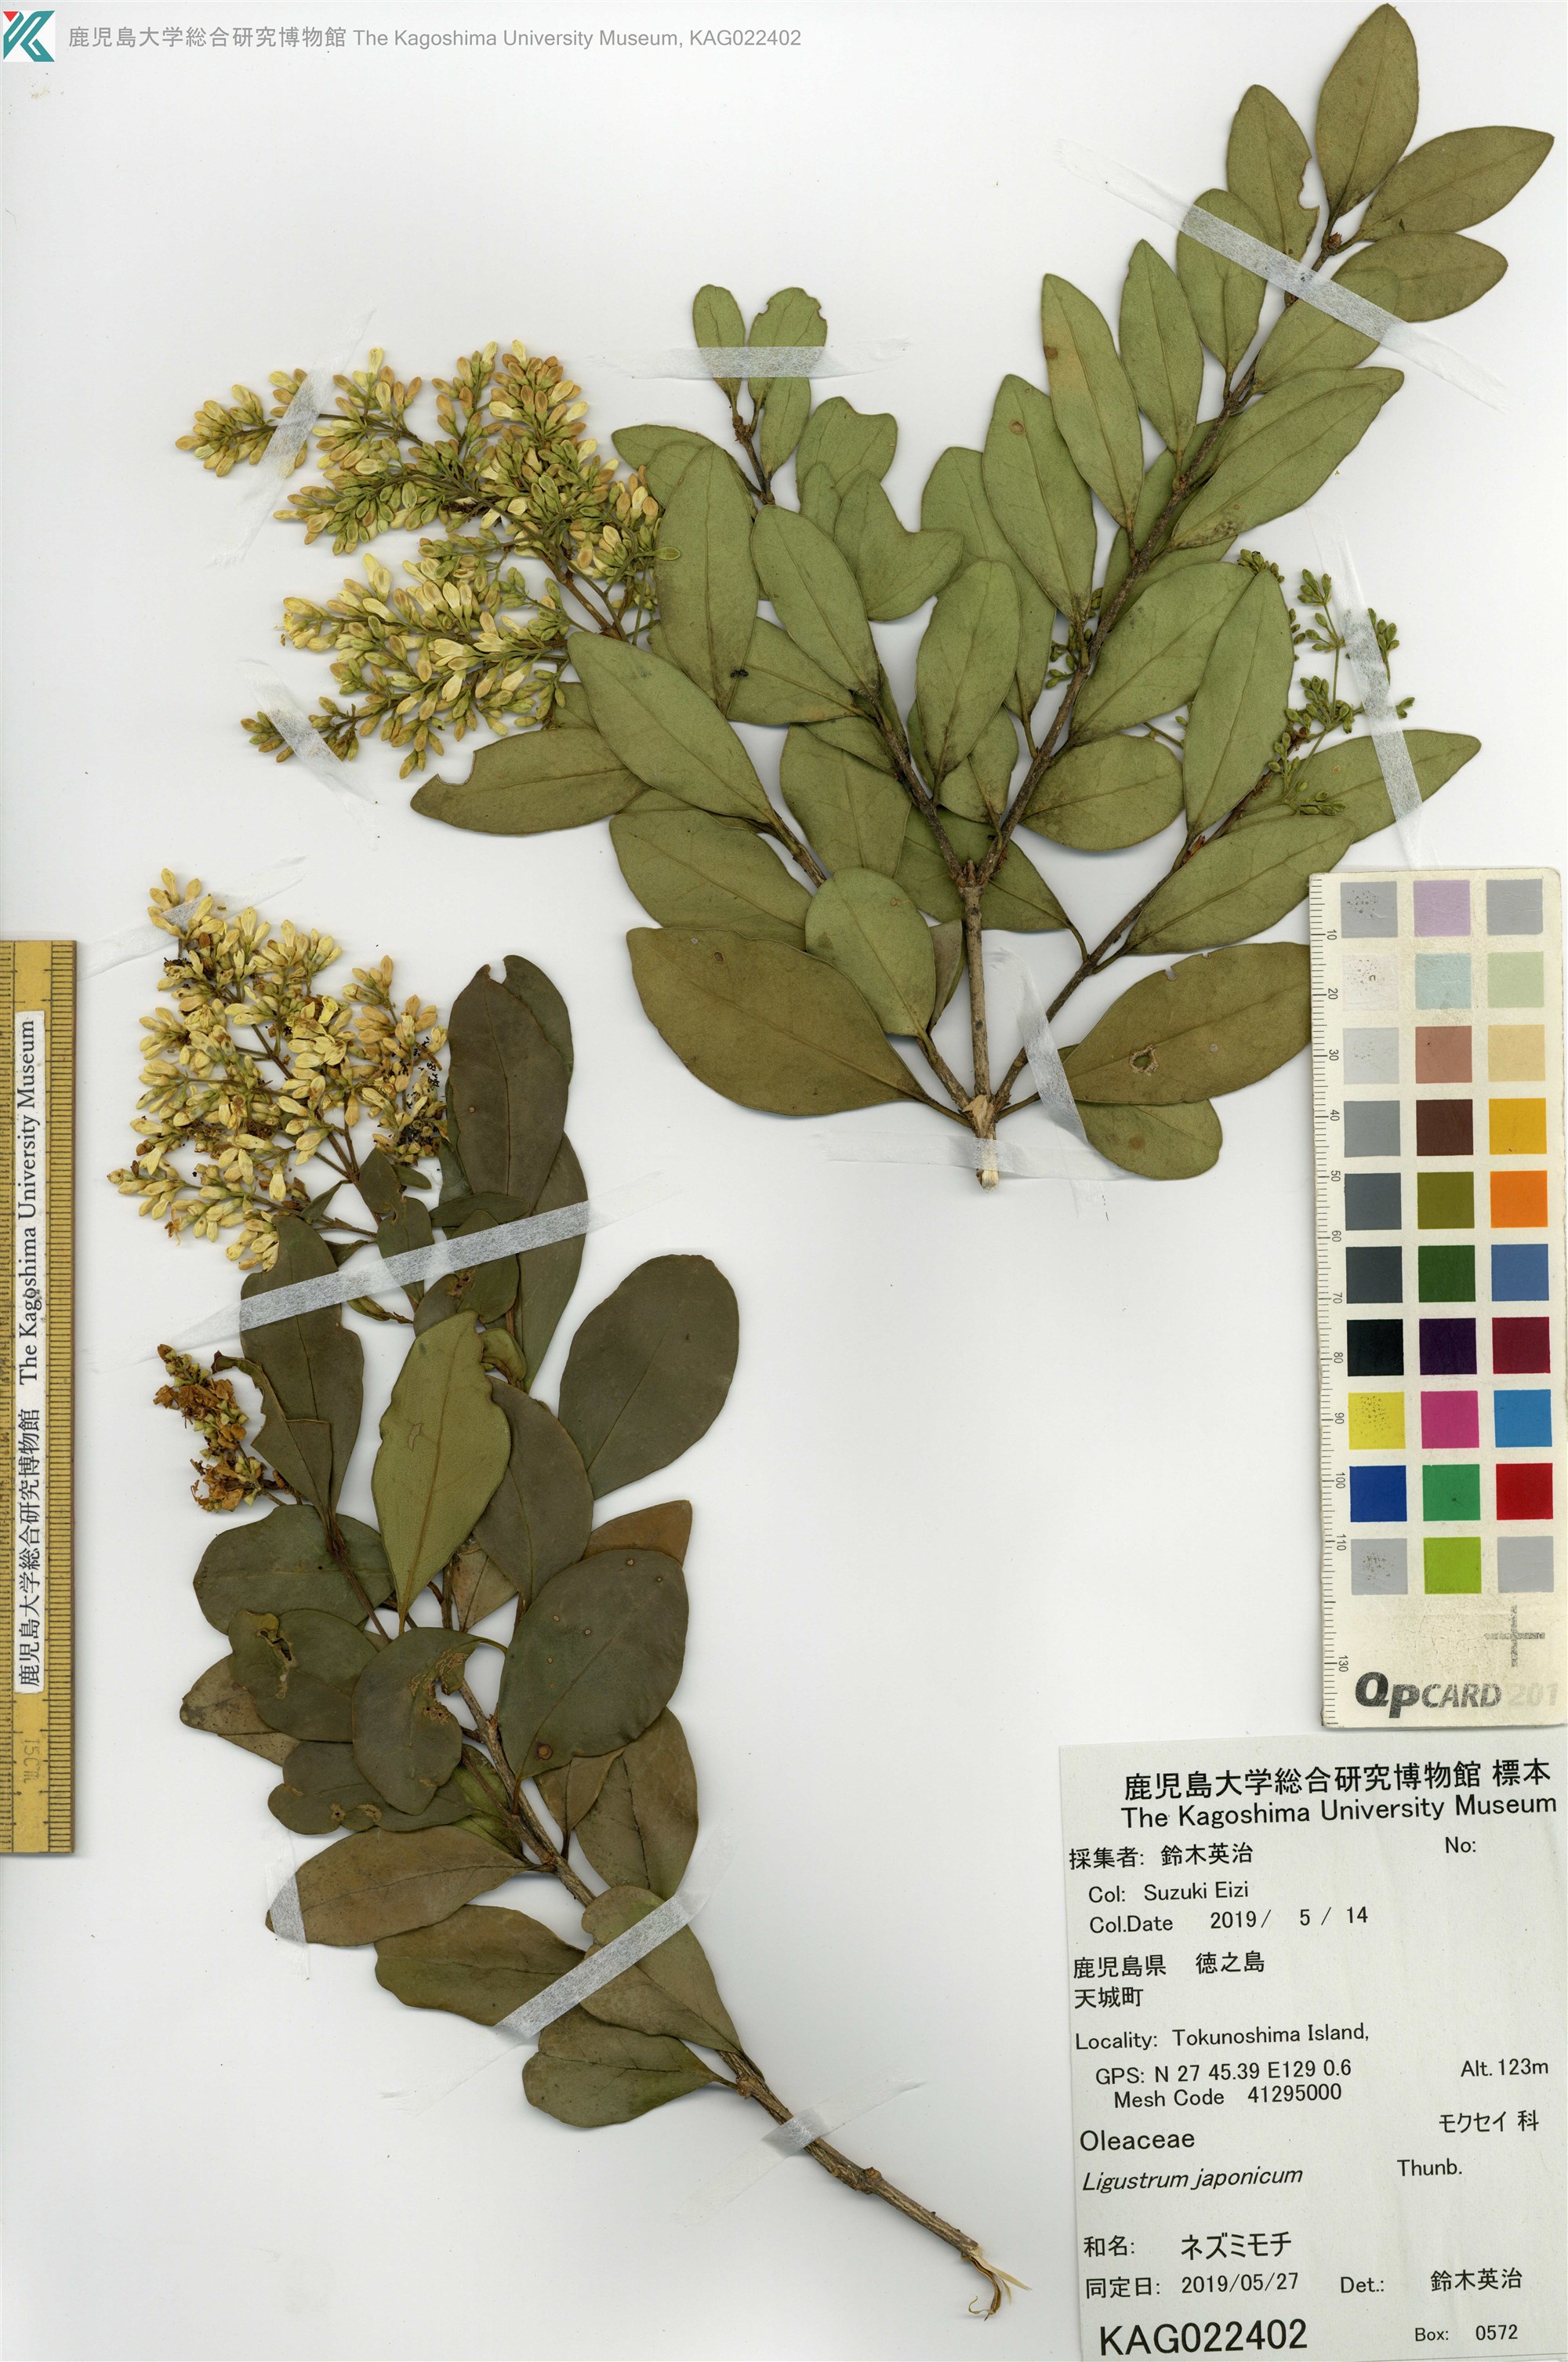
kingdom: Plantae
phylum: Tracheophyta
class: Magnoliopsida
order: Lamiales
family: Oleaceae
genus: Ligustrum
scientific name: Ligustrum japonicum
